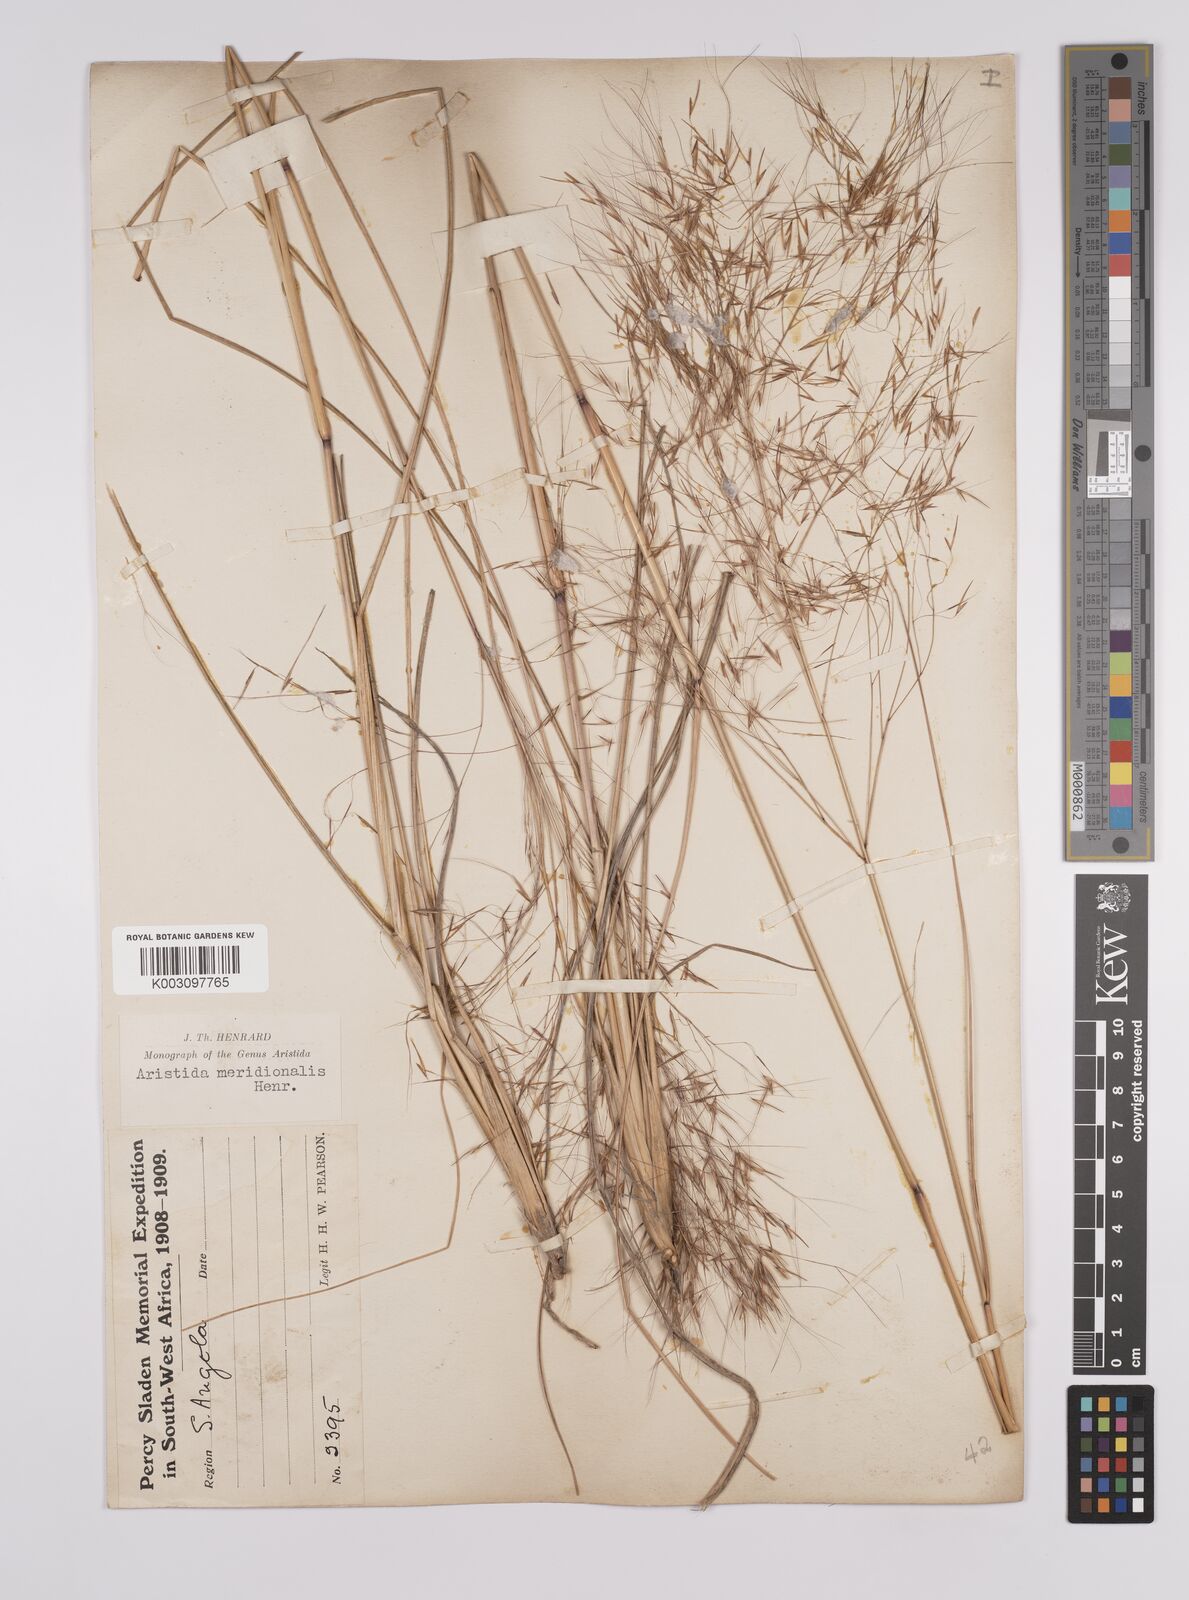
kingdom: Plantae
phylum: Tracheophyta
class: Liliopsida
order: Poales
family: Poaceae
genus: Aristida
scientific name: Aristida meridionalis
